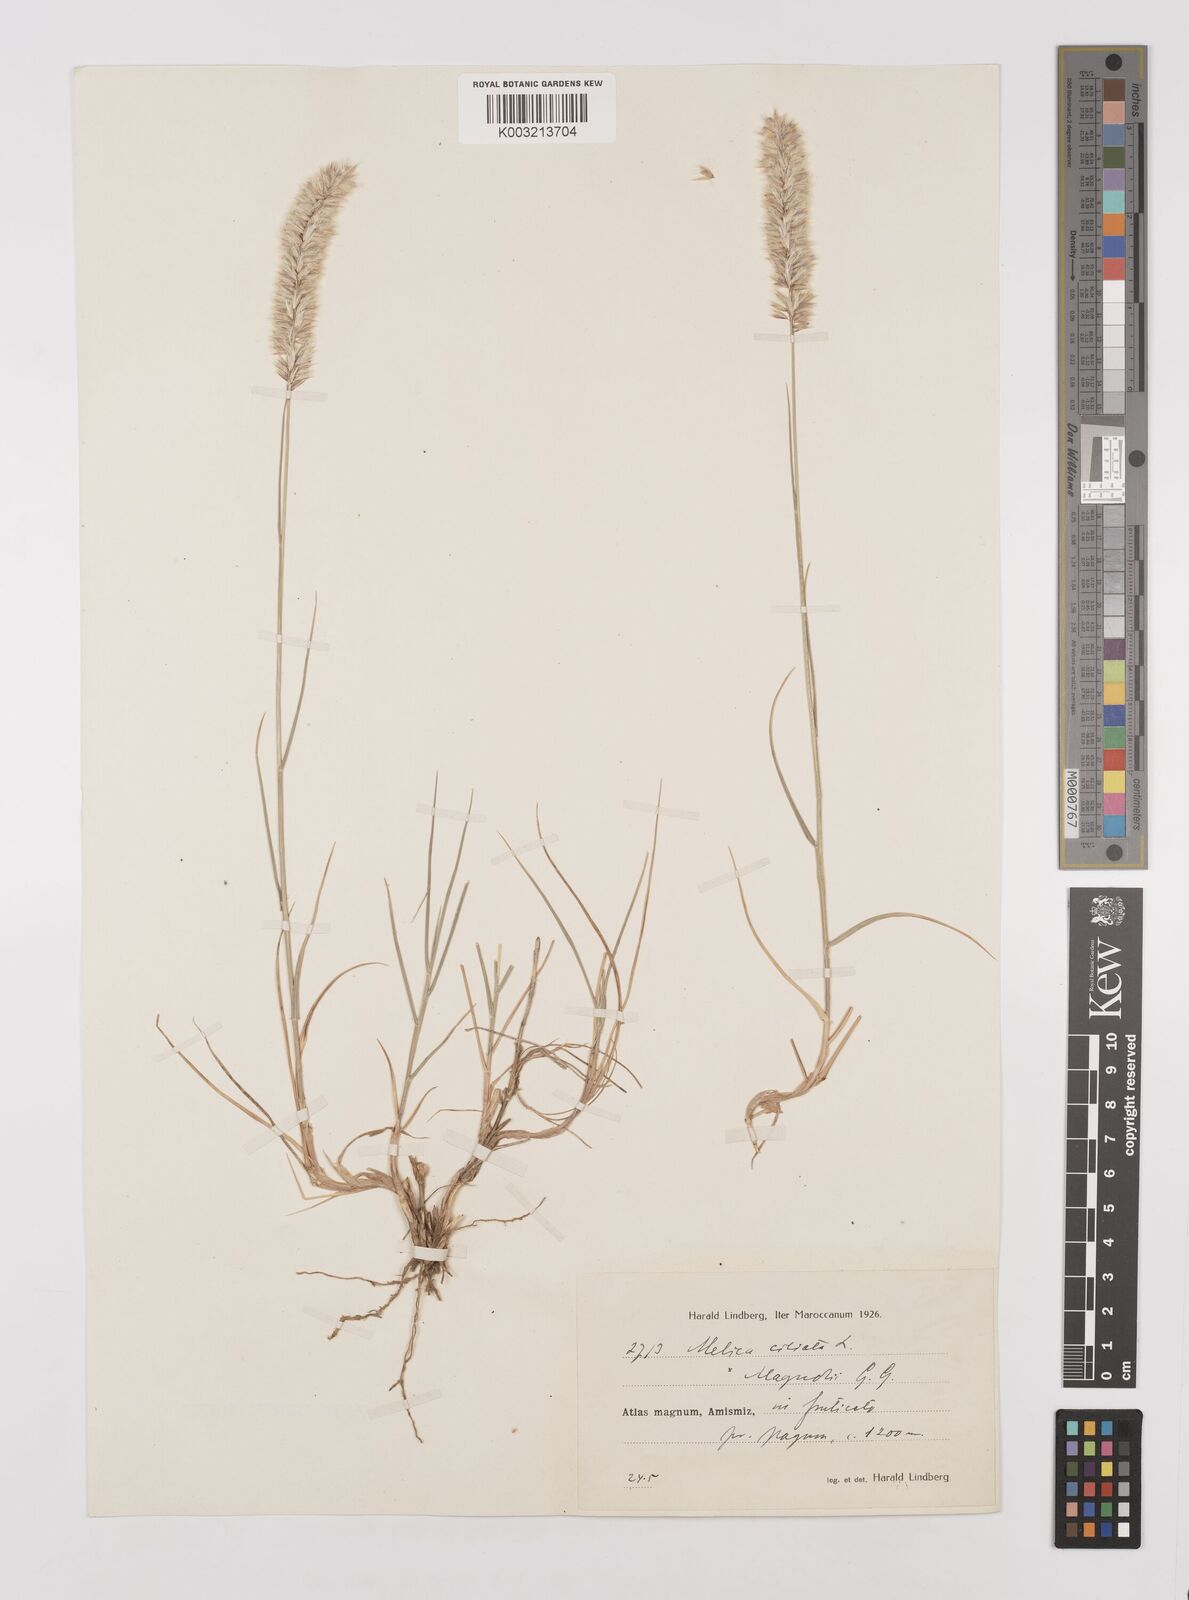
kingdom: Plantae
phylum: Tracheophyta
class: Liliopsida
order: Poales
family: Poaceae
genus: Melica
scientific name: Melica violacea
